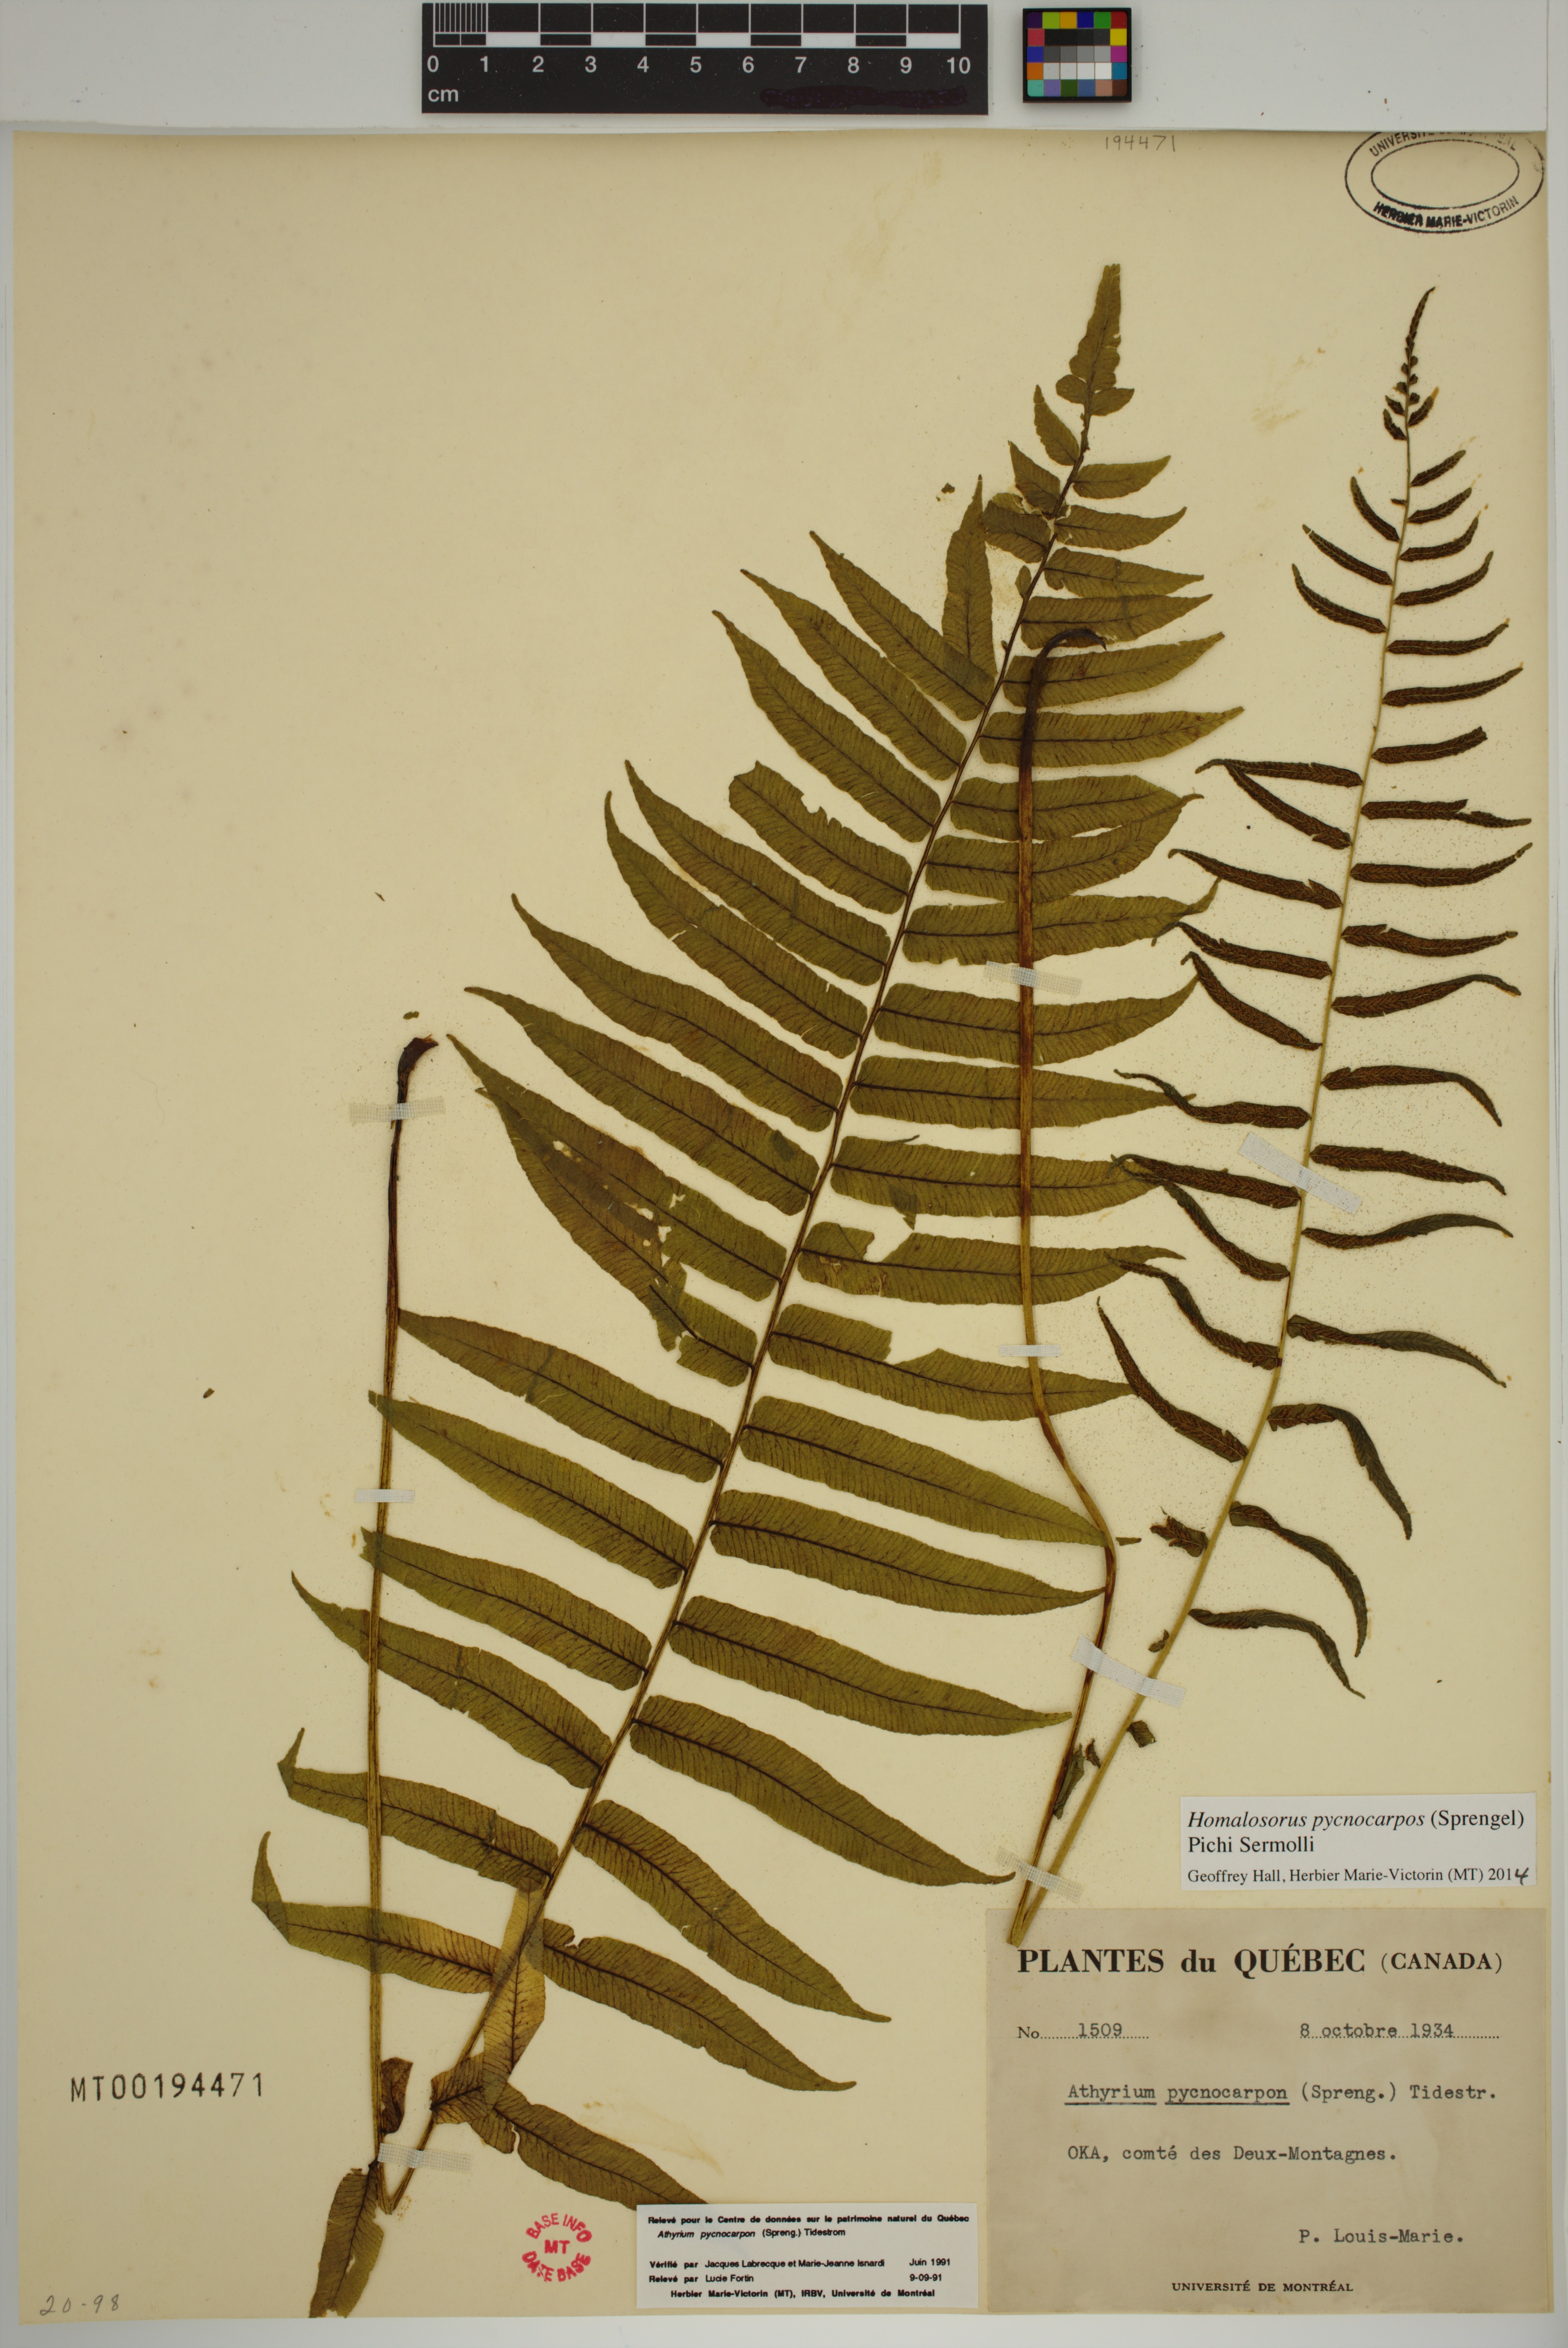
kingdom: Plantae
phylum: Tracheophyta
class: Polypodiopsida
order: Polypodiales
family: Diplaziopsidaceae
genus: Homalosorus
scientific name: Homalosorus pycnocarpos
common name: Glade fern
